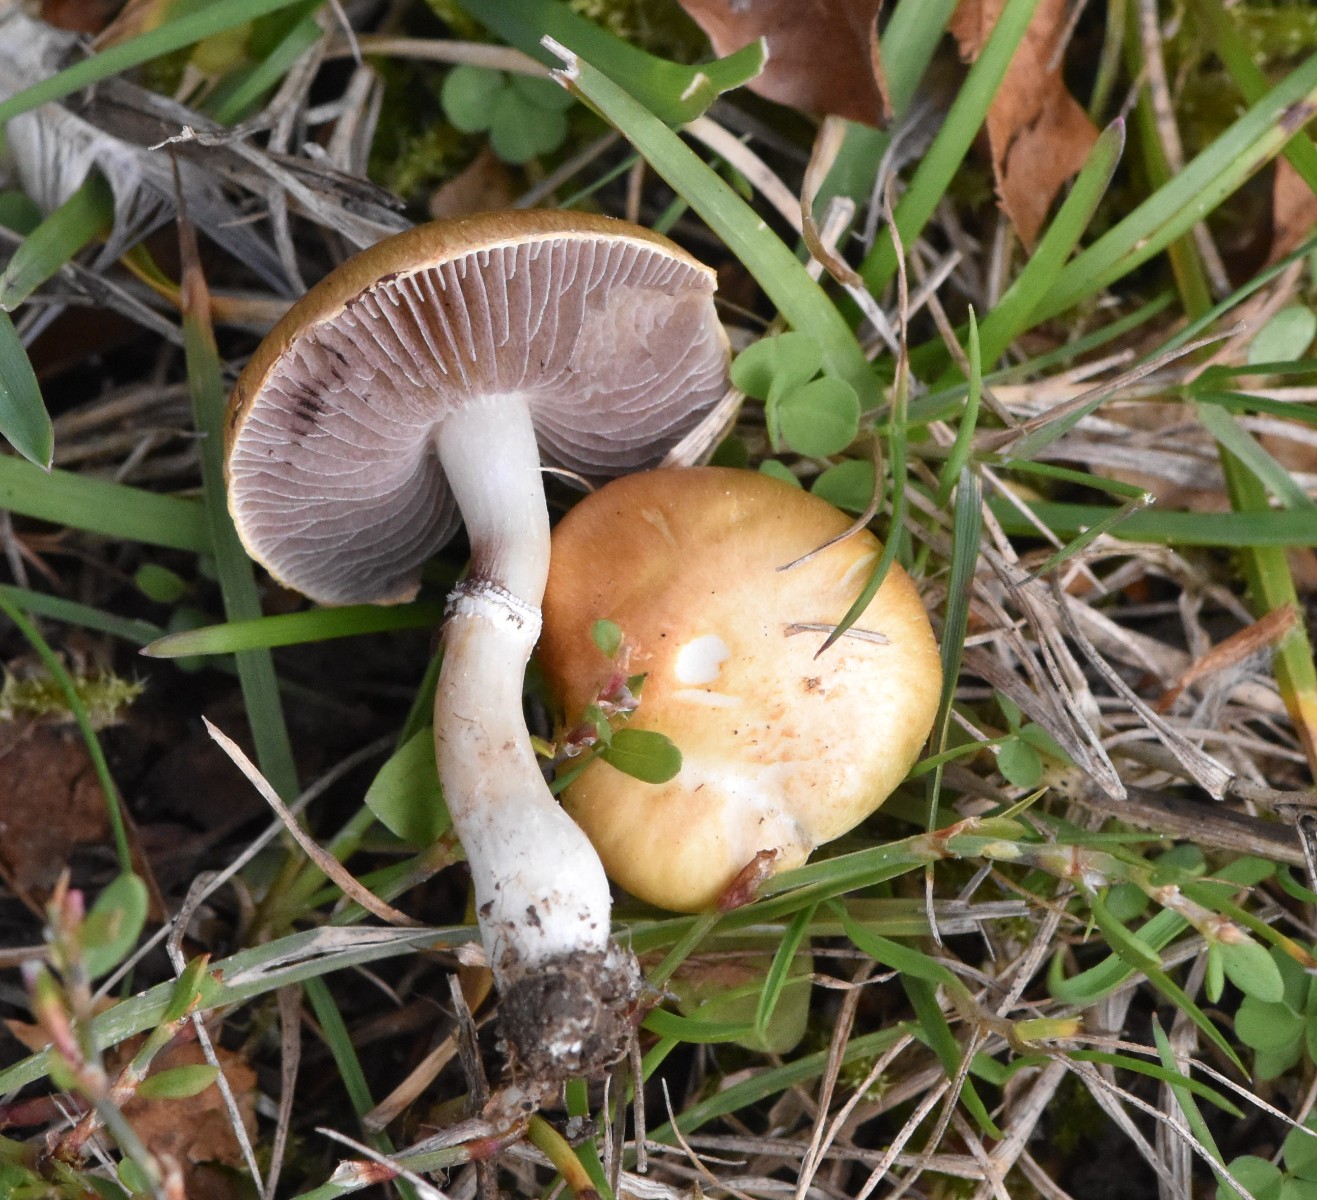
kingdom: Fungi
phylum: Basidiomycota
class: Agaricomycetes
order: Agaricales
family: Hymenogastraceae
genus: Psilocybe
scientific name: Psilocybe coronilla
